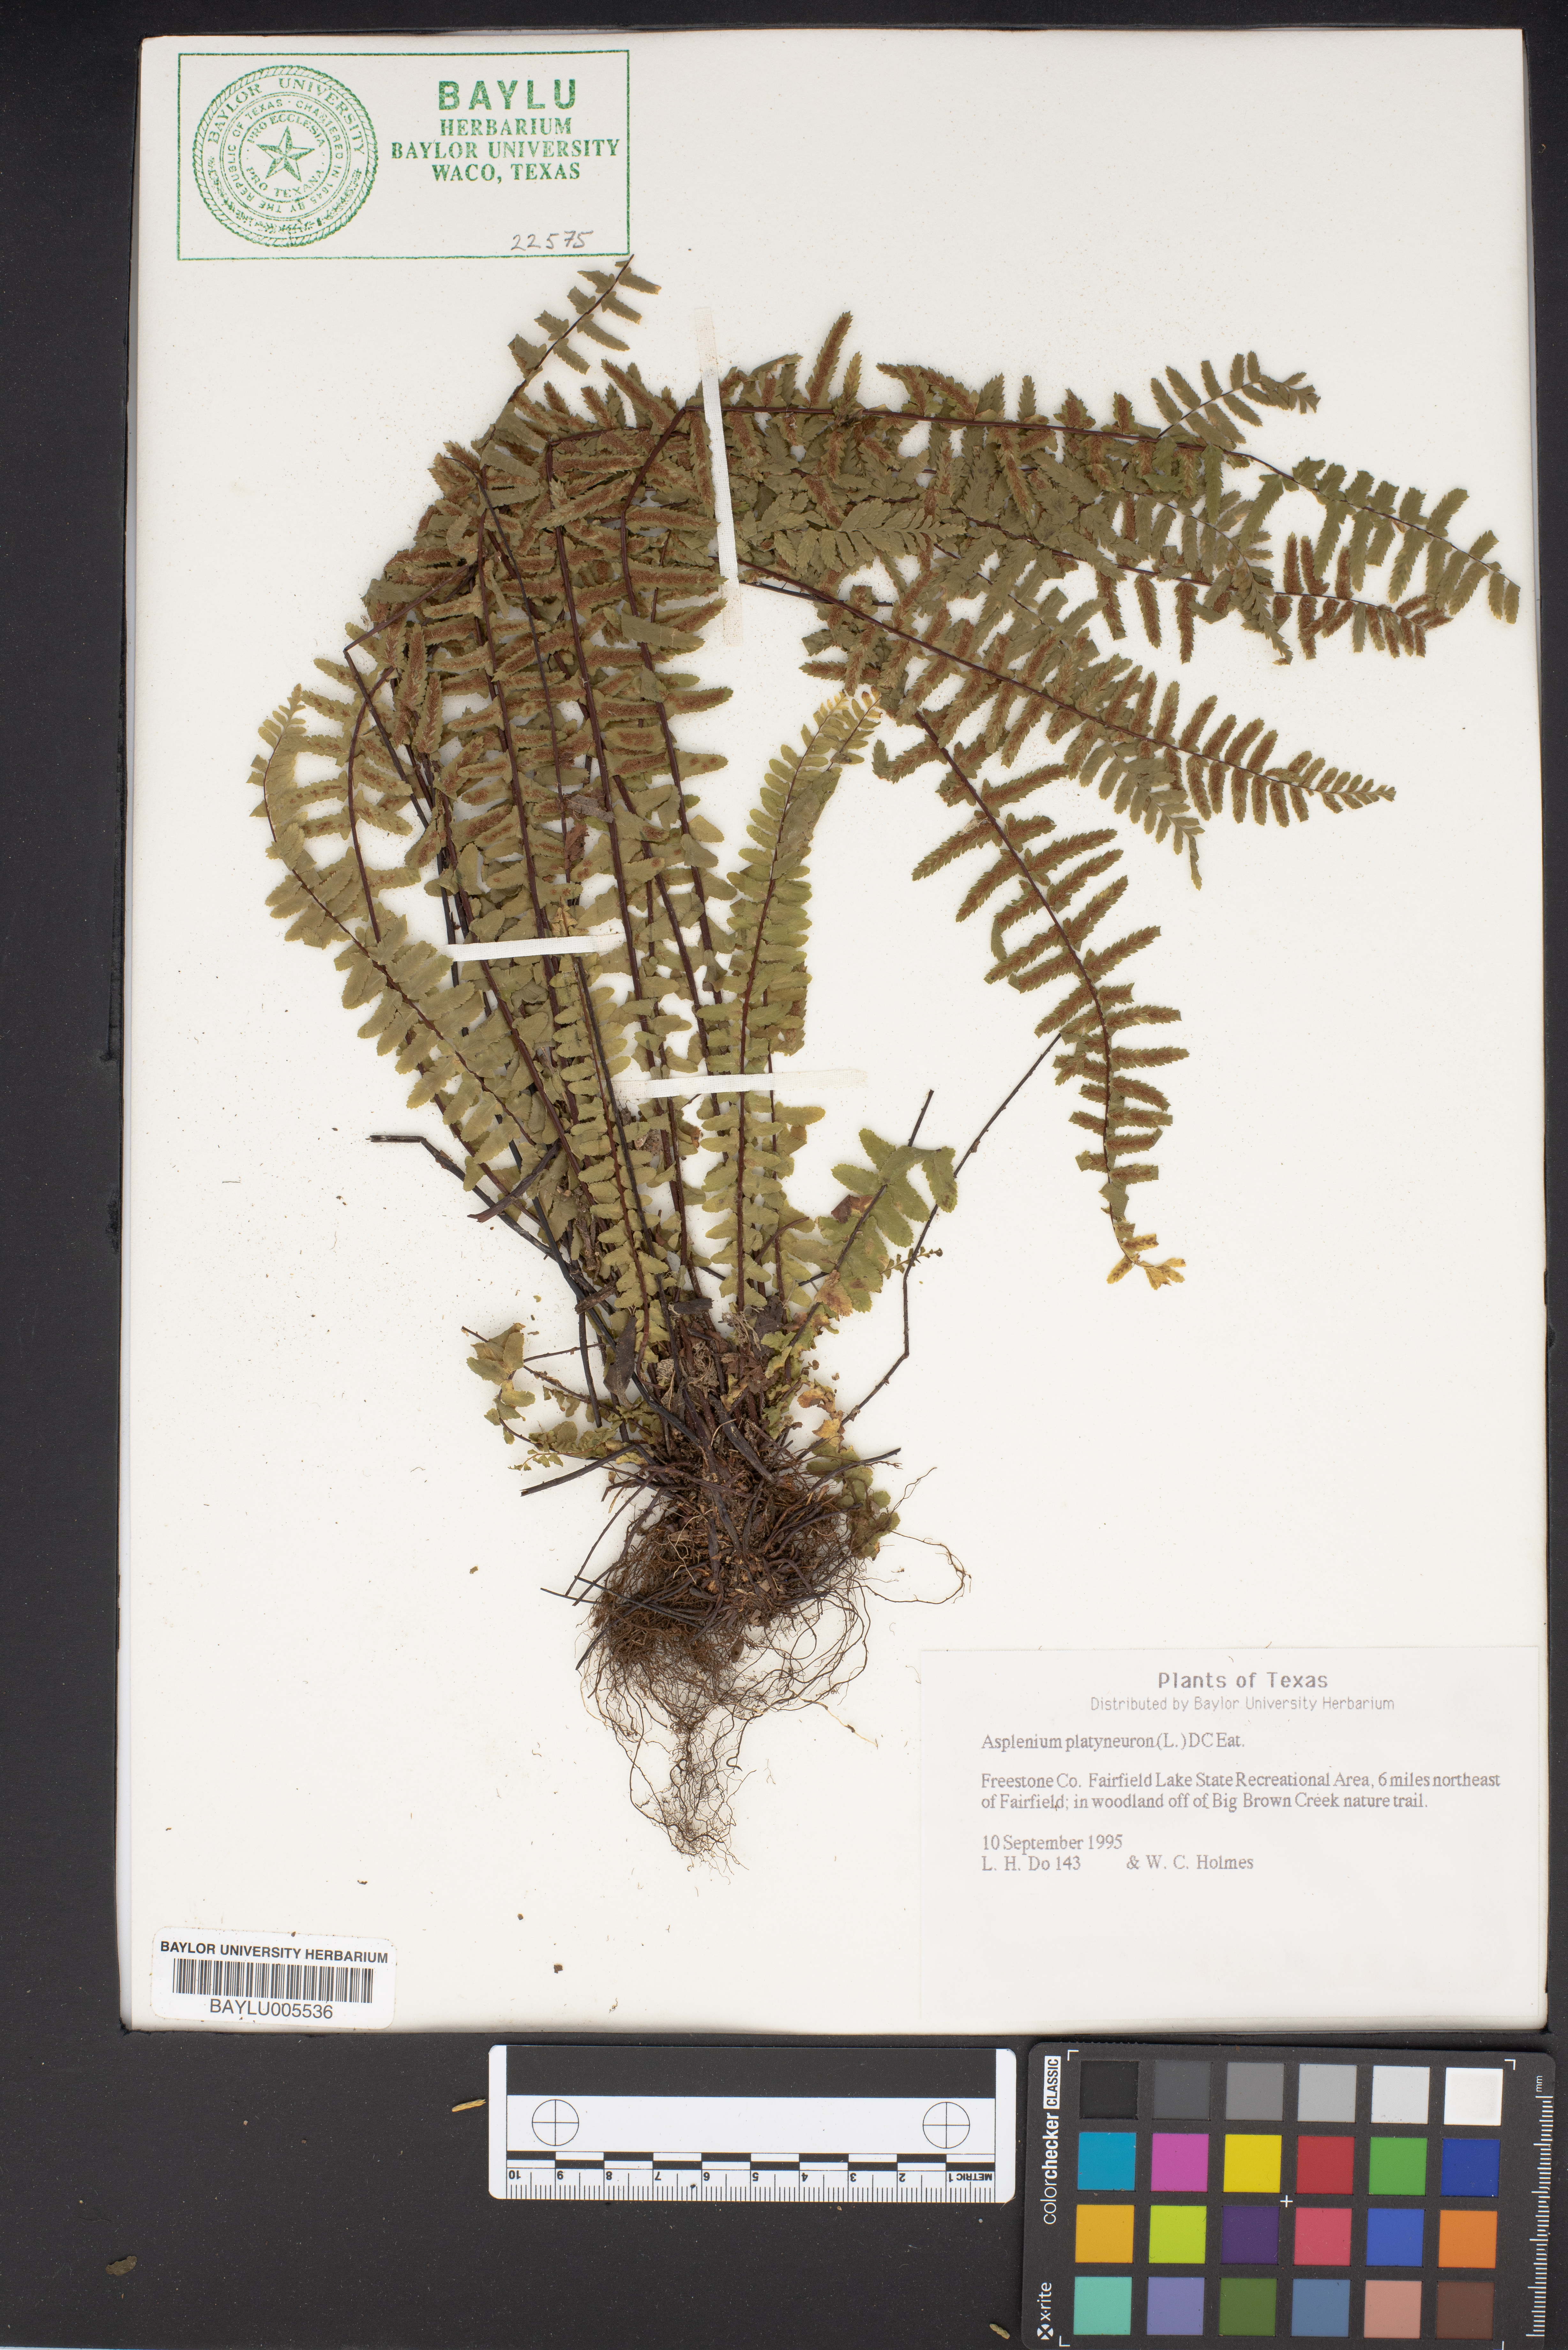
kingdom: Plantae
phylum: Tracheophyta
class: Polypodiopsida
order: Polypodiales
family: Aspleniaceae
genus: Asplenium
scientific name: Asplenium platyneuron
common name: Ebony spleenwort
